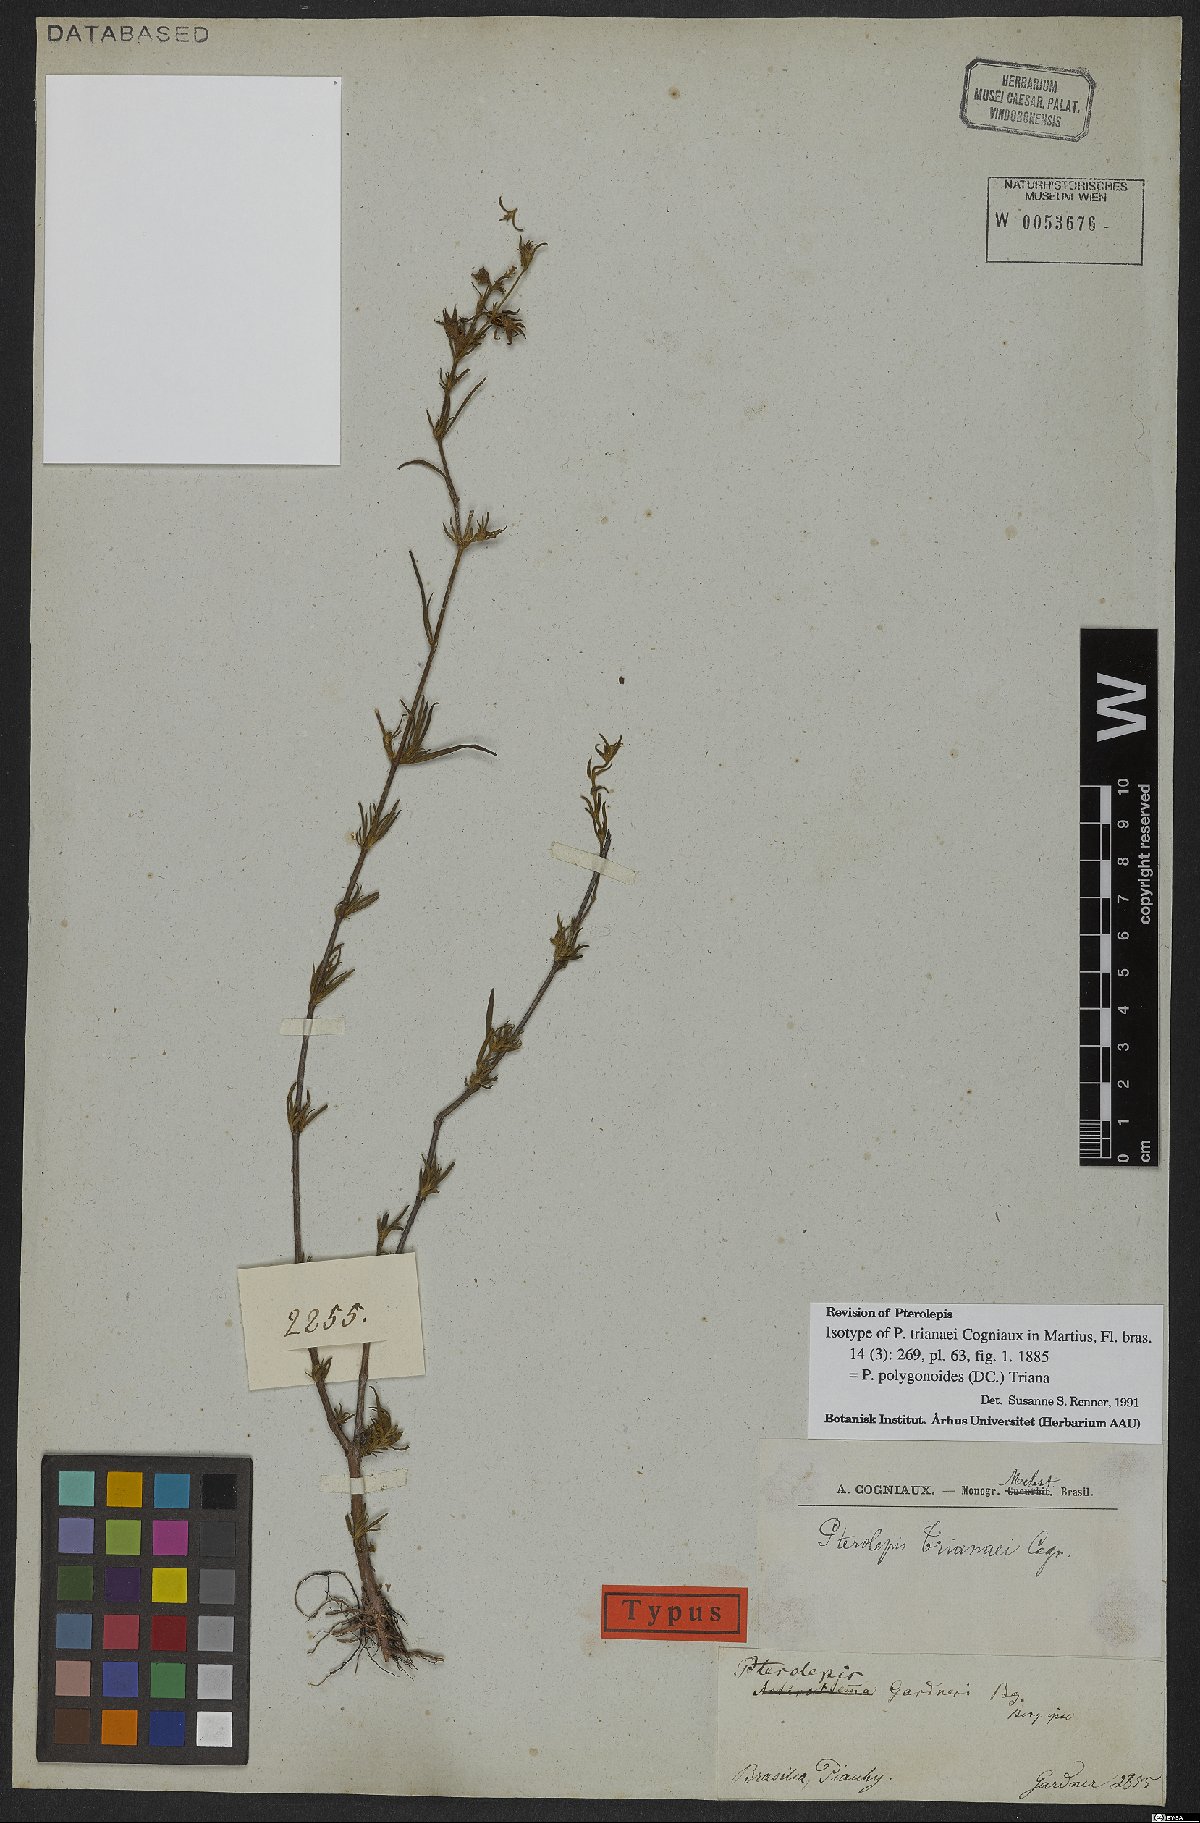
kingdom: Plantae
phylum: Tracheophyta
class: Magnoliopsida
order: Myrtales
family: Melastomataceae
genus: Pterolepis
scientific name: Pterolepis polygonoides
